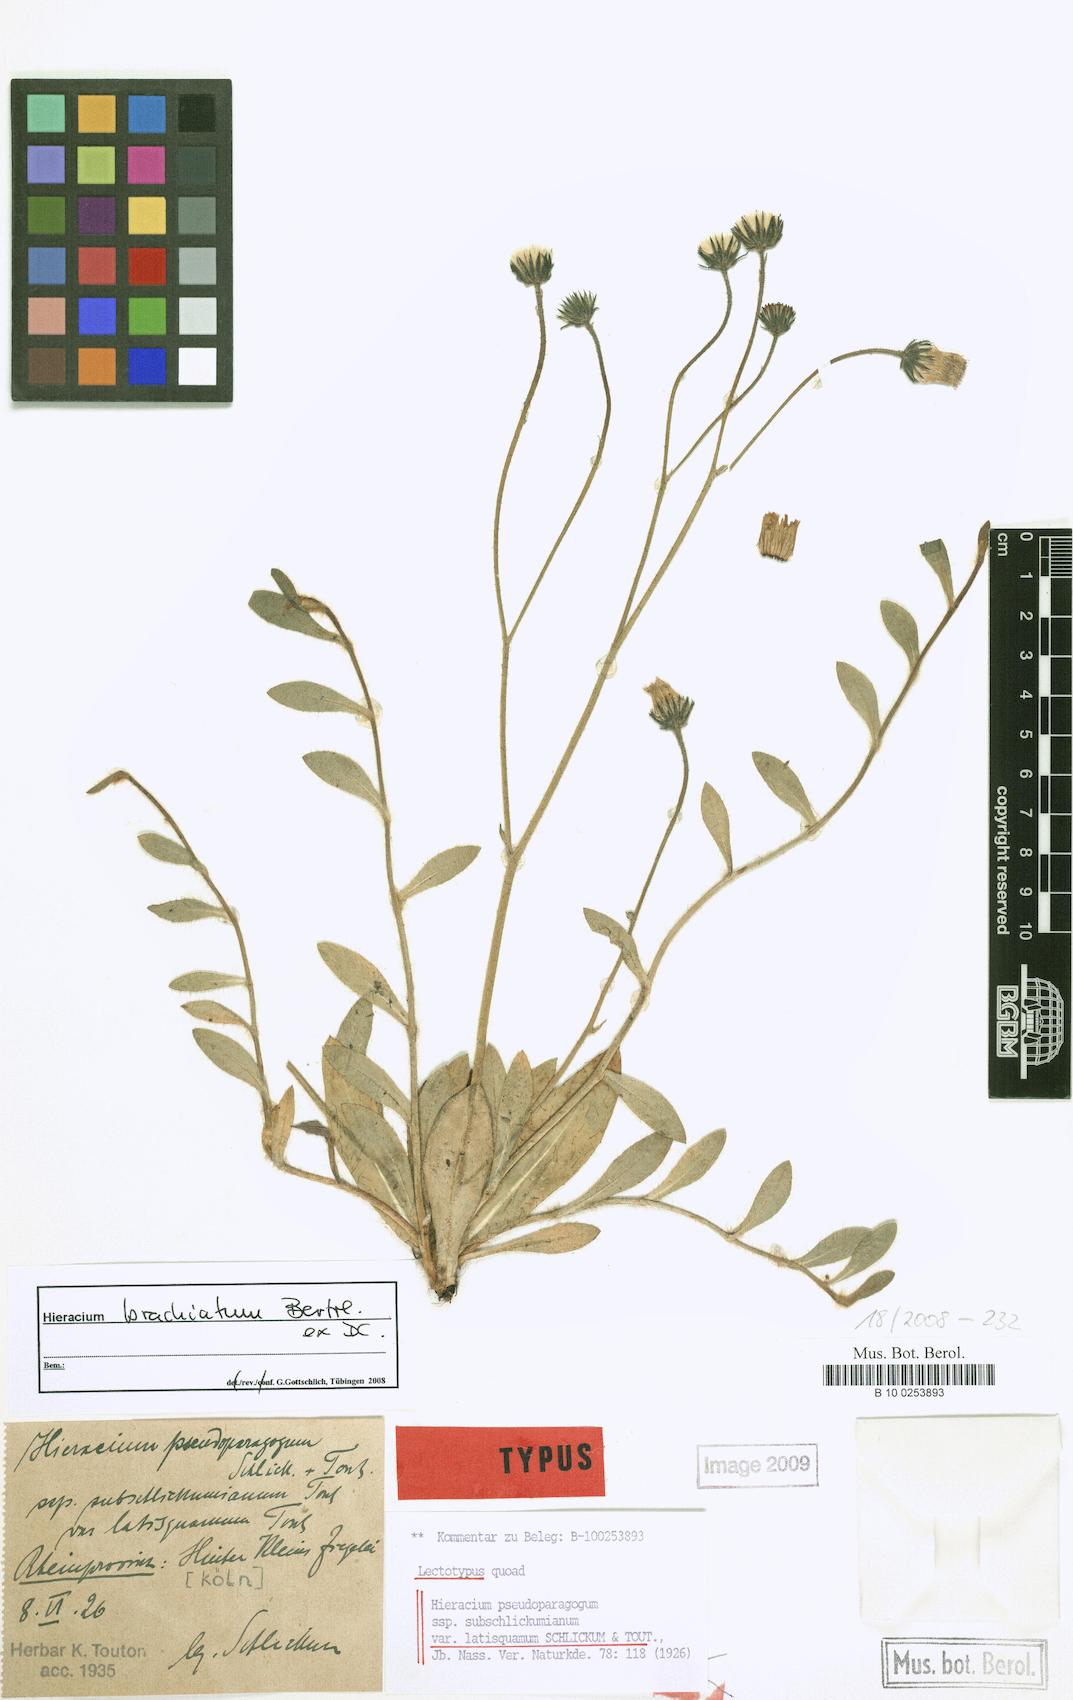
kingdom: Plantae
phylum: Tracheophyta
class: Magnoliopsida
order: Asterales
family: Asteraceae
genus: Pilosella
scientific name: Pilosella acutifolia
